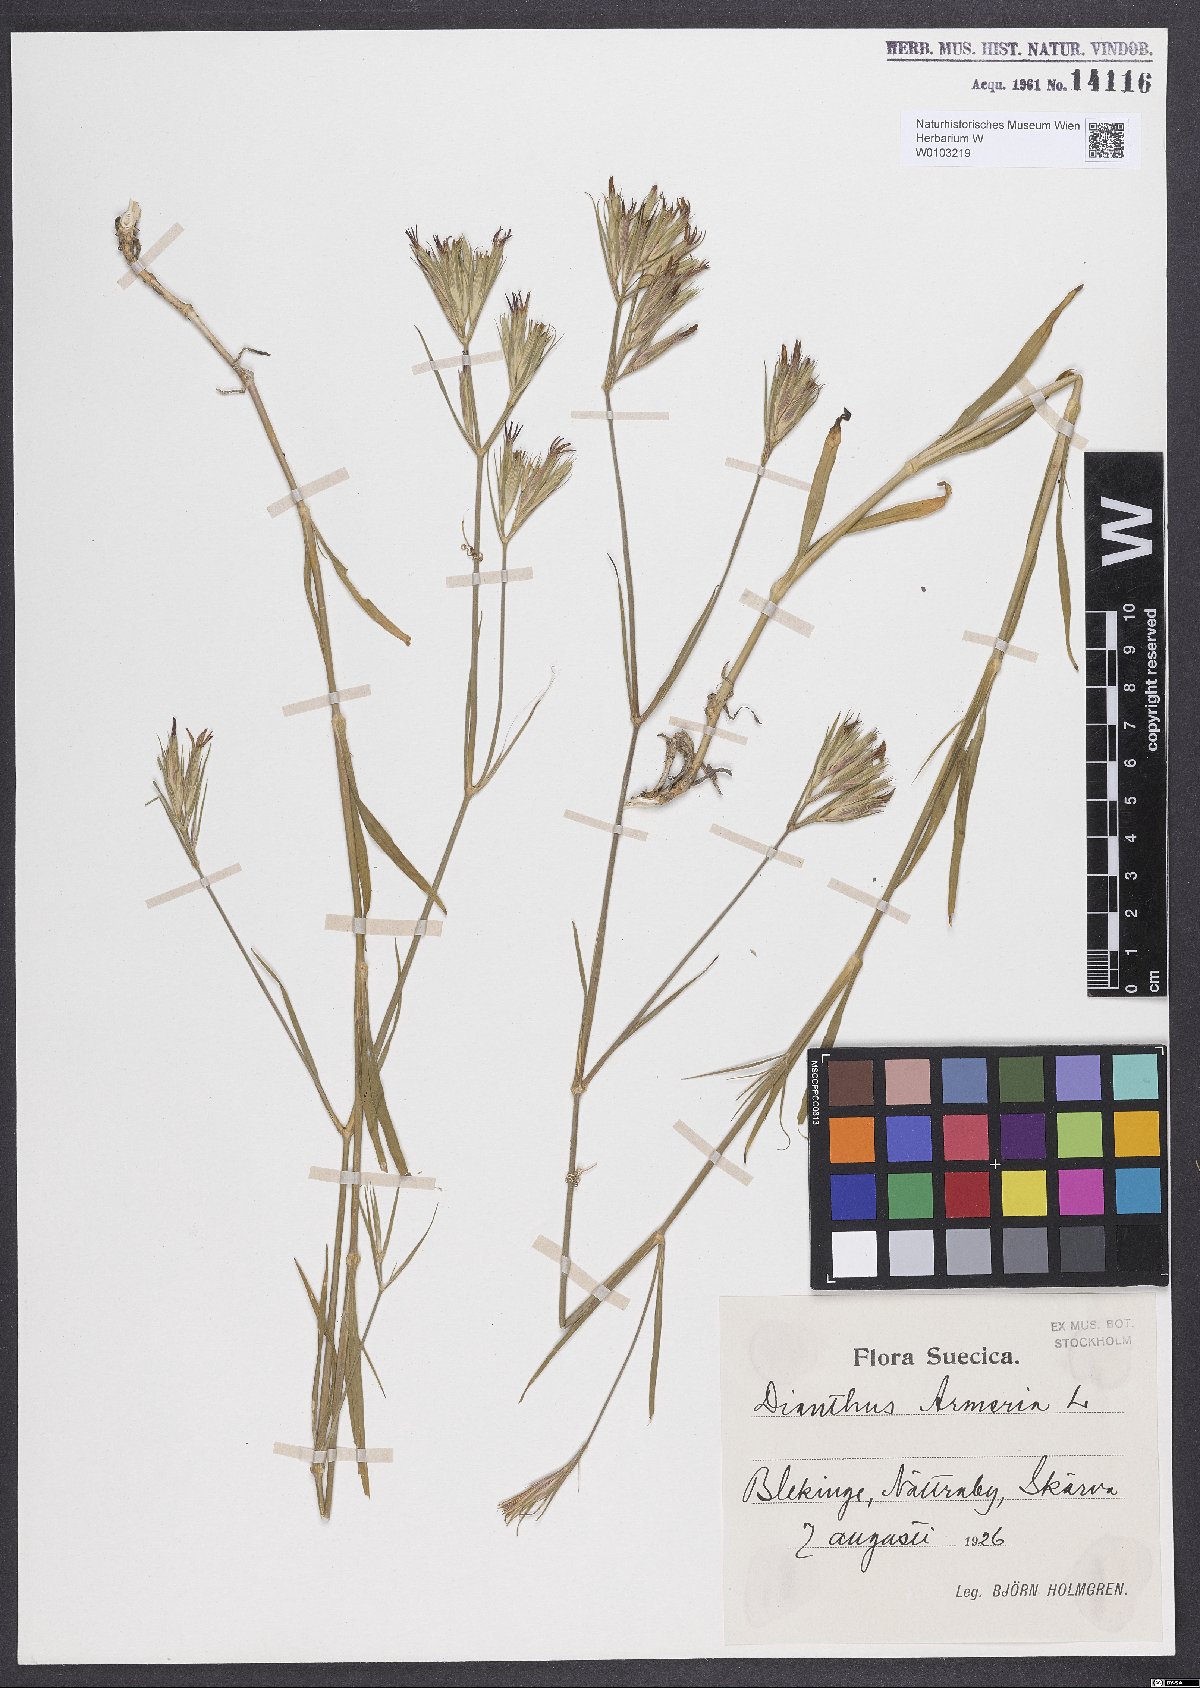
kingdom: Plantae
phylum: Tracheophyta
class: Magnoliopsida
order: Caryophyllales
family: Caryophyllaceae
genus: Dianthus
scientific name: Dianthus armeria
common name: Deptford pink
